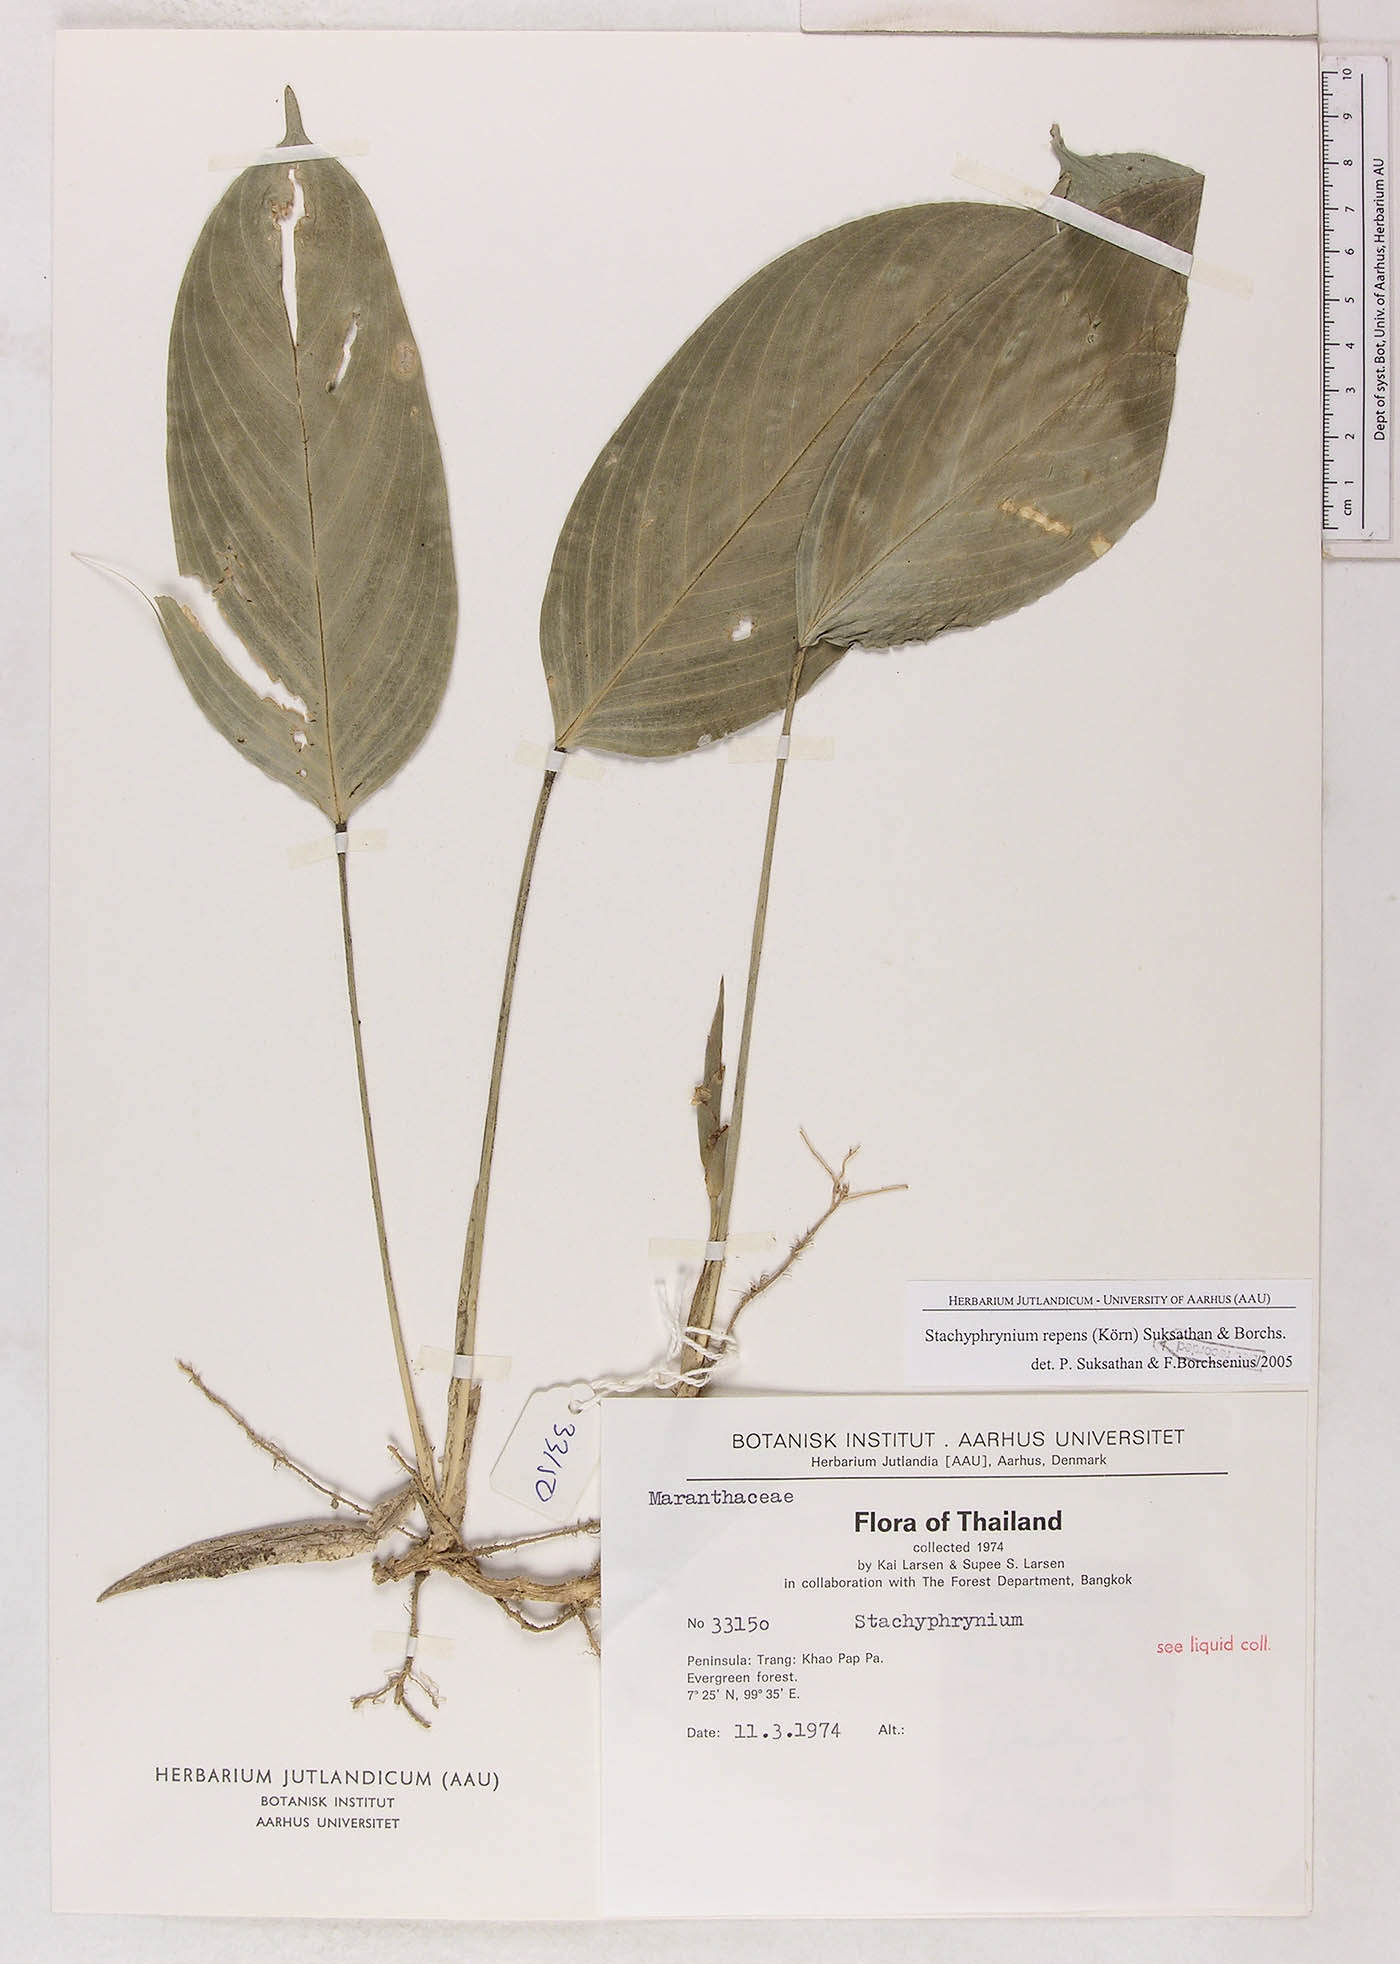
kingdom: Plantae
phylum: Tracheophyta
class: Liliopsida
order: Zingiberales
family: Marantaceae
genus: Stachyphrynium
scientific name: Stachyphrynium repens
